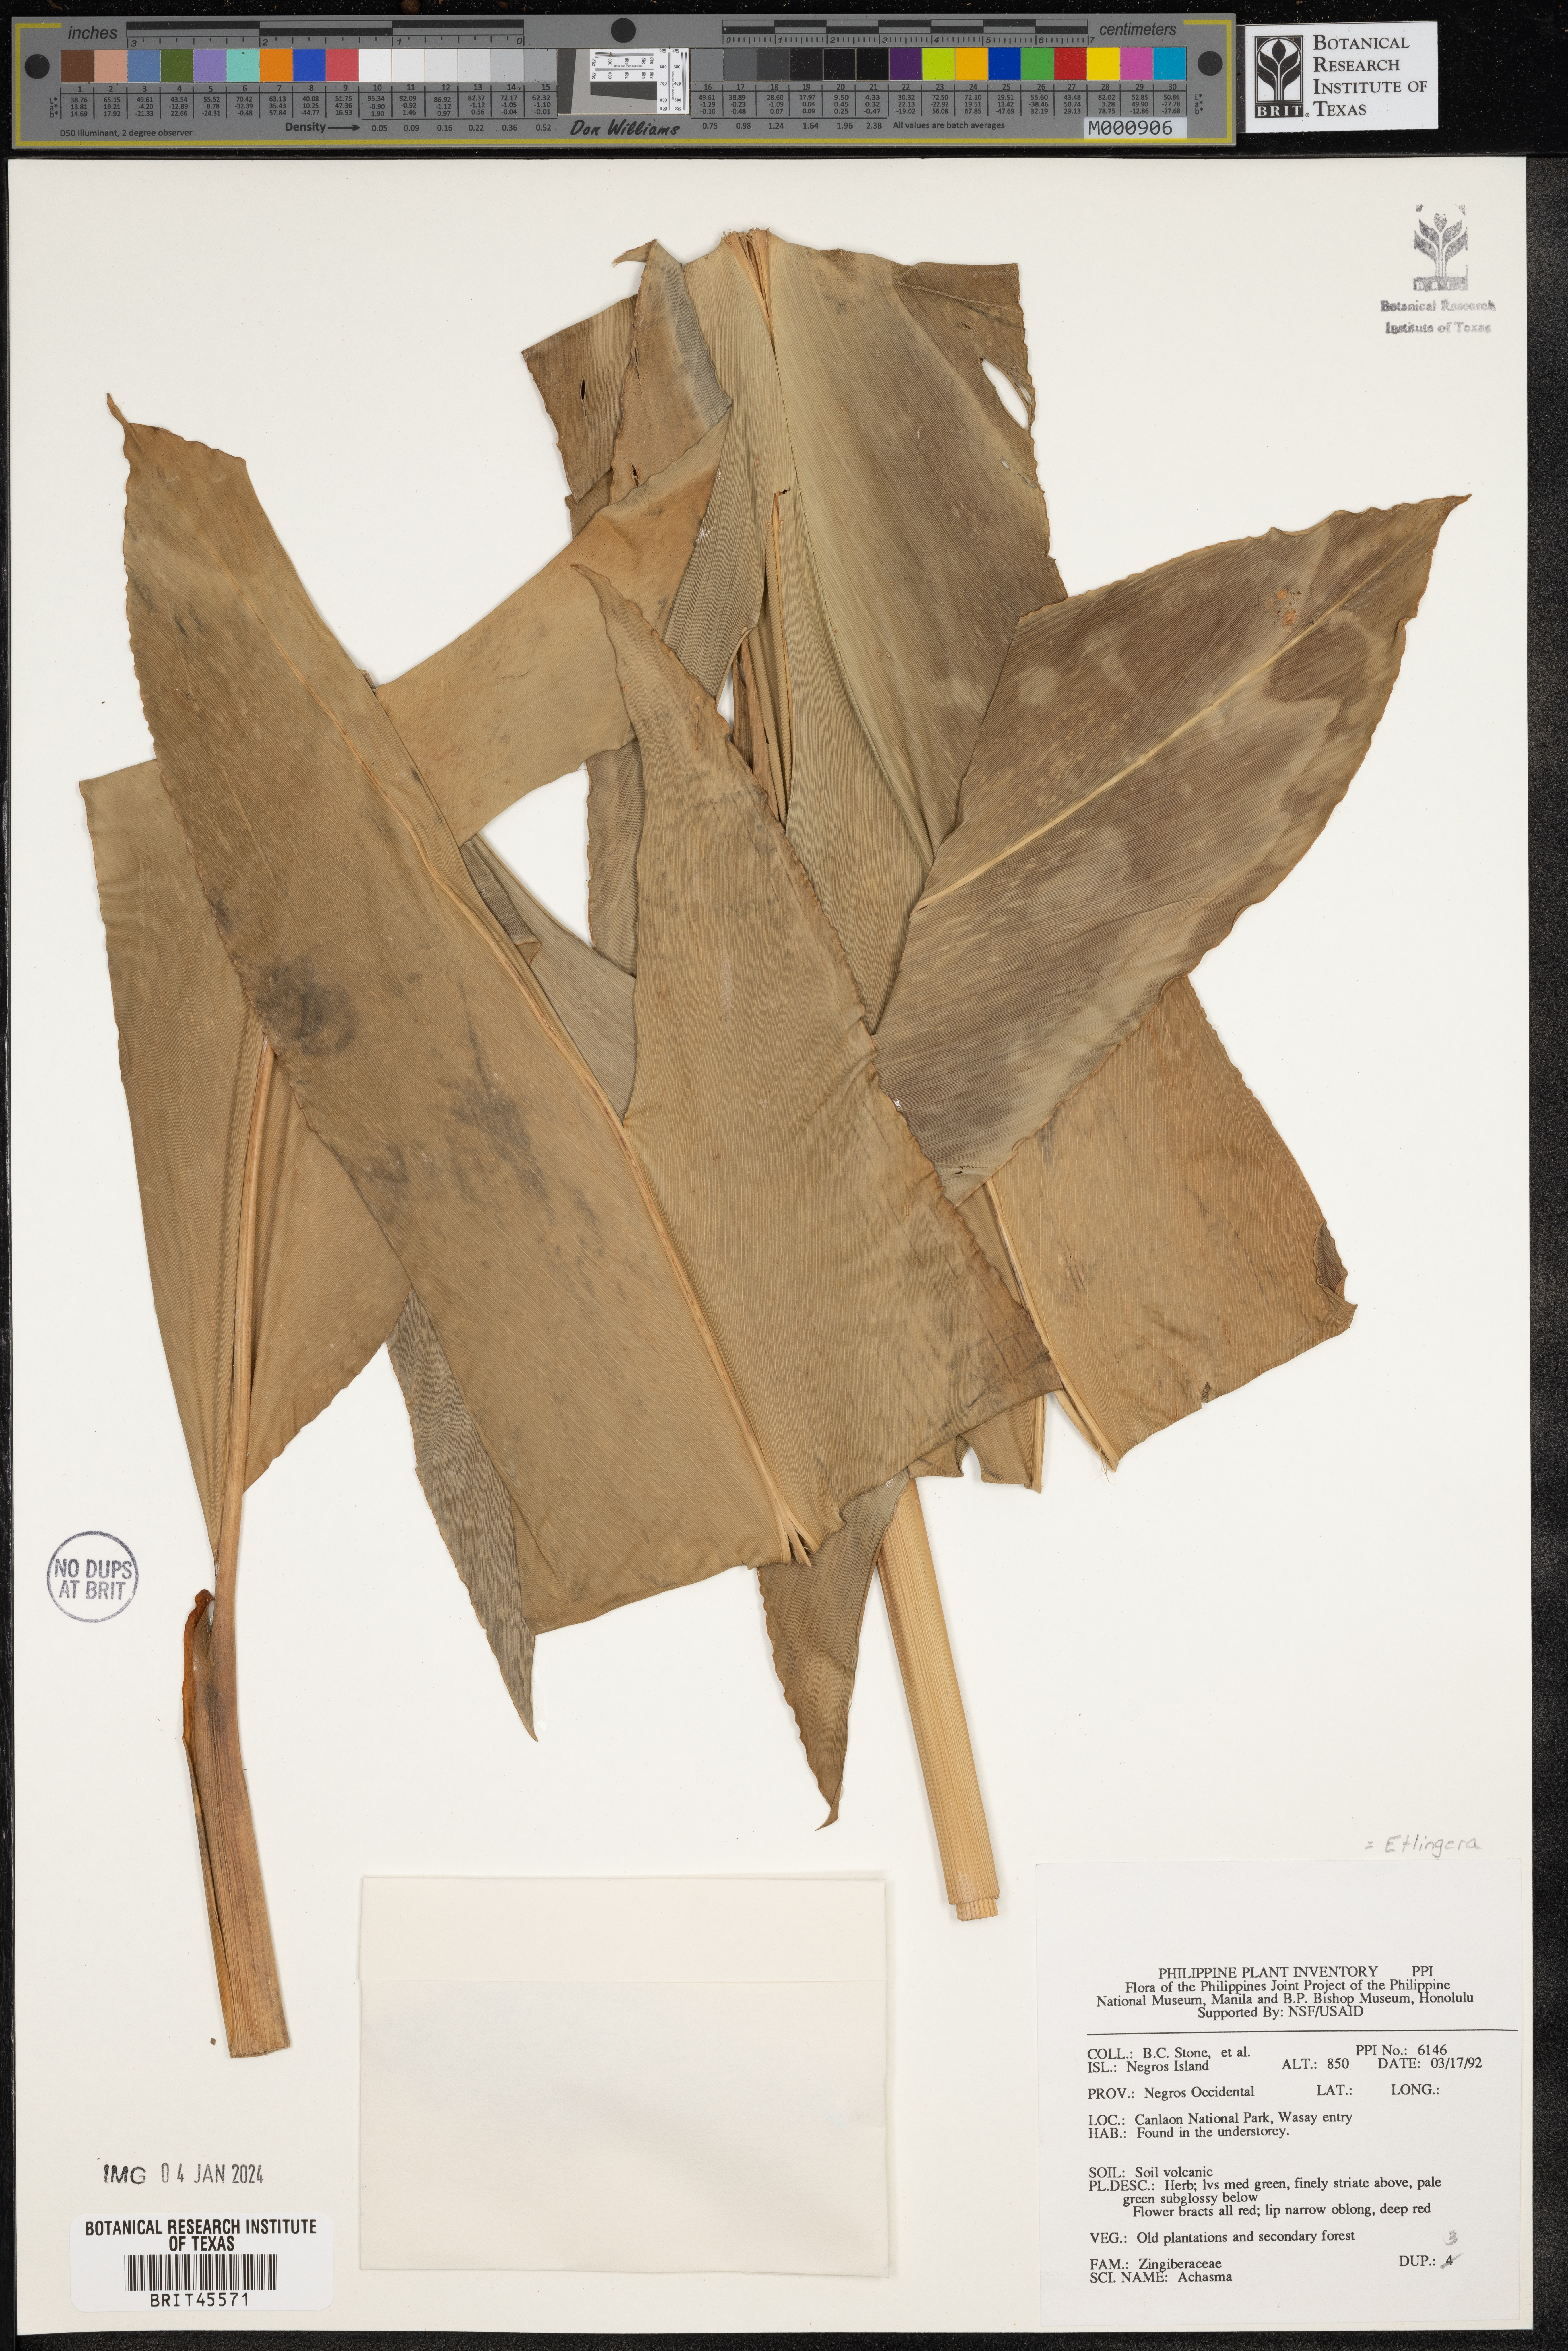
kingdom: Plantae
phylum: Tracheophyta
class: Liliopsida
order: Zingiberales
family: Zingiberaceae
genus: Etlingera
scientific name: Etlingera
